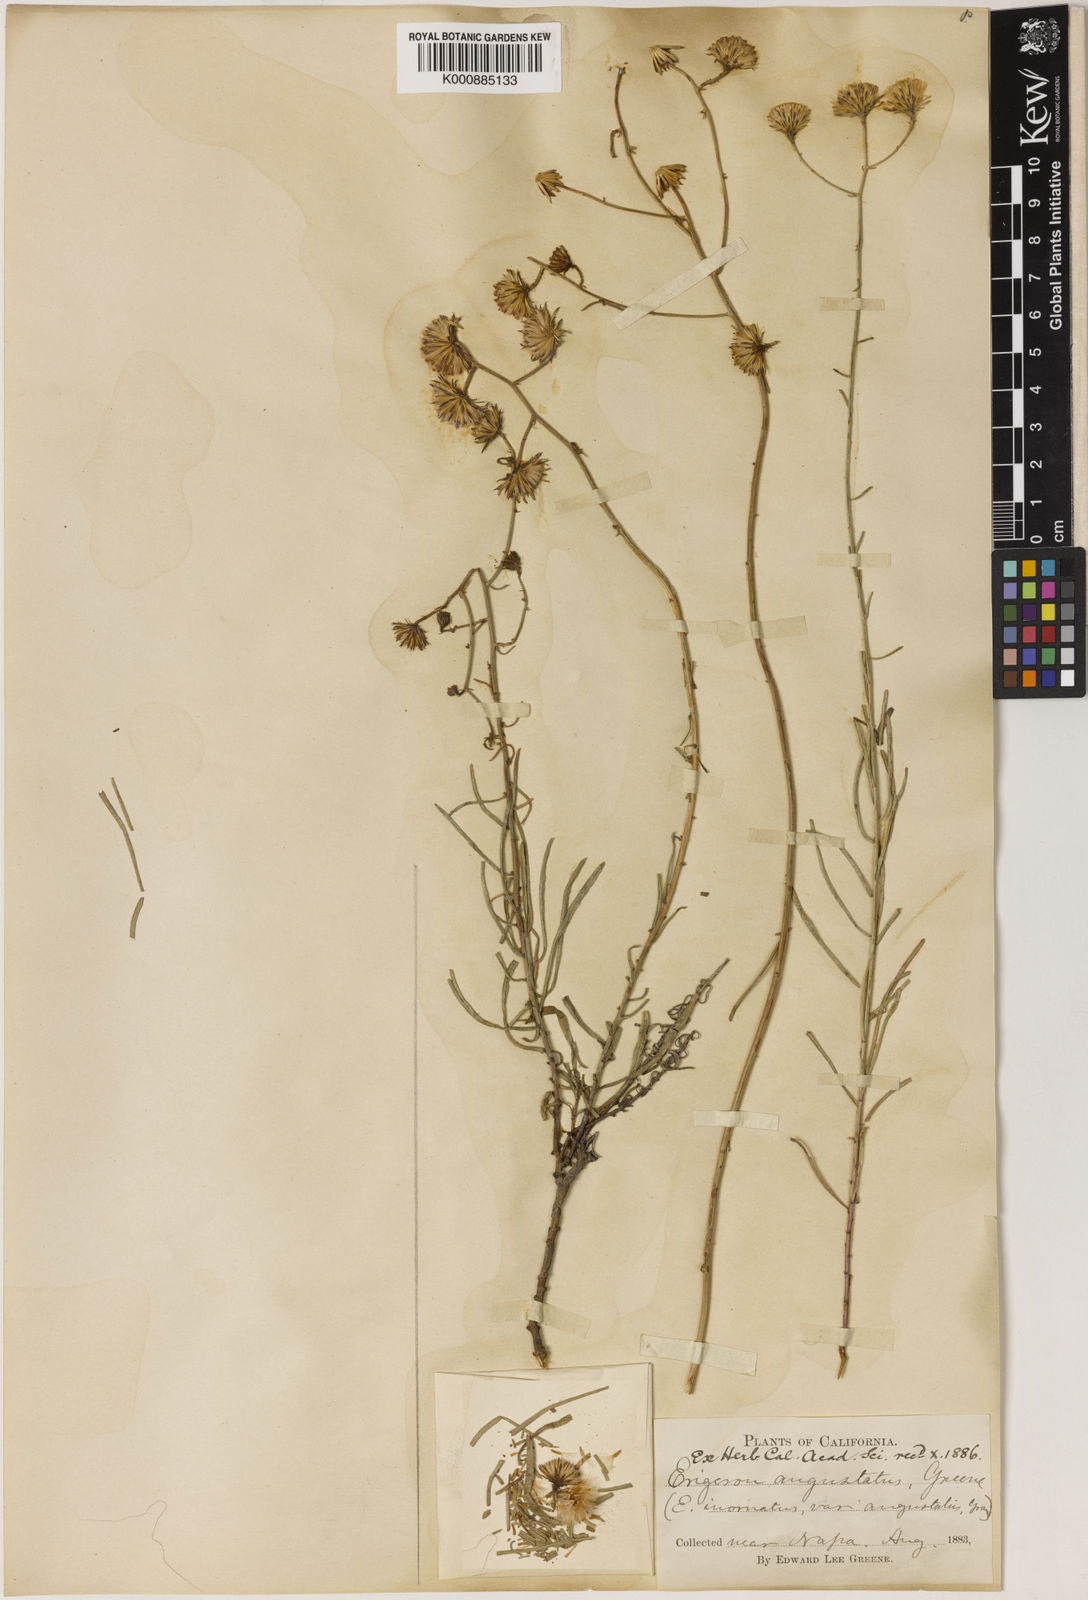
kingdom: Plantae
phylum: Tracheophyta
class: Magnoliopsida
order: Asterales
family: Asteraceae
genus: Erigeron
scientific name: Erigeron
